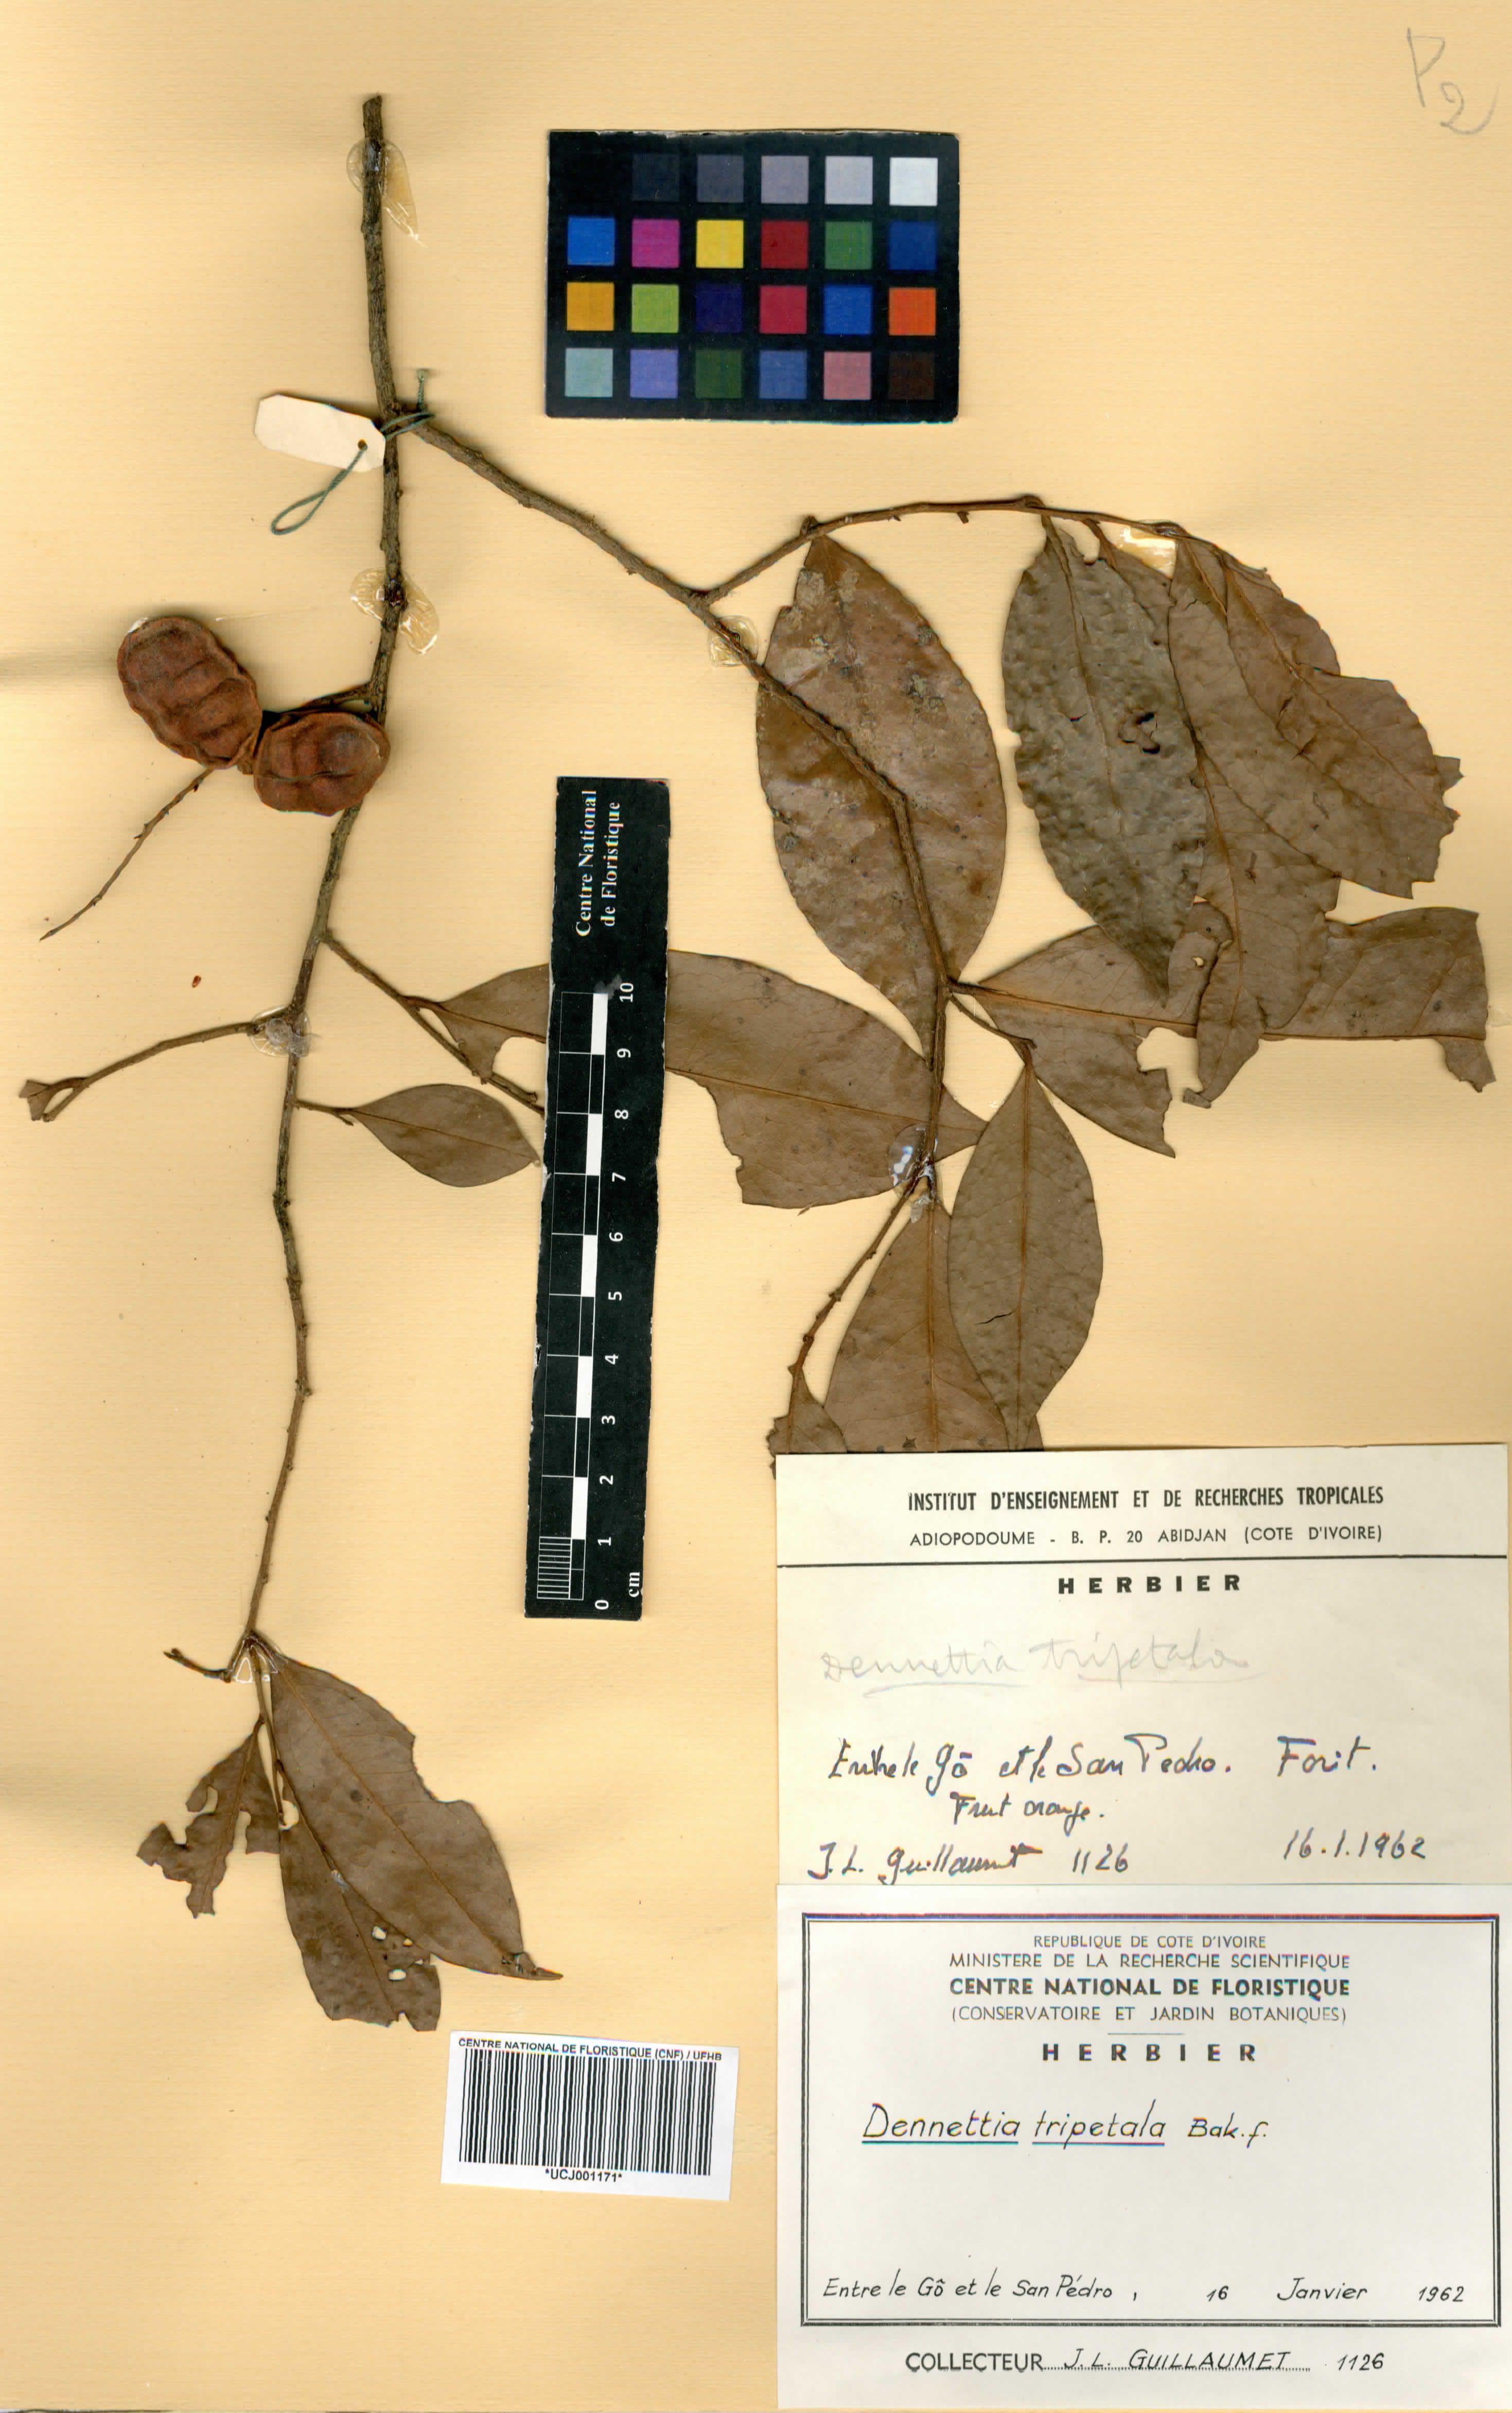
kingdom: Plantae
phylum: Tracheophyta
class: Magnoliopsida
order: Magnoliales
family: Annonaceae
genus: Uvariopsis
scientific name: Uvariopsis tripetala
